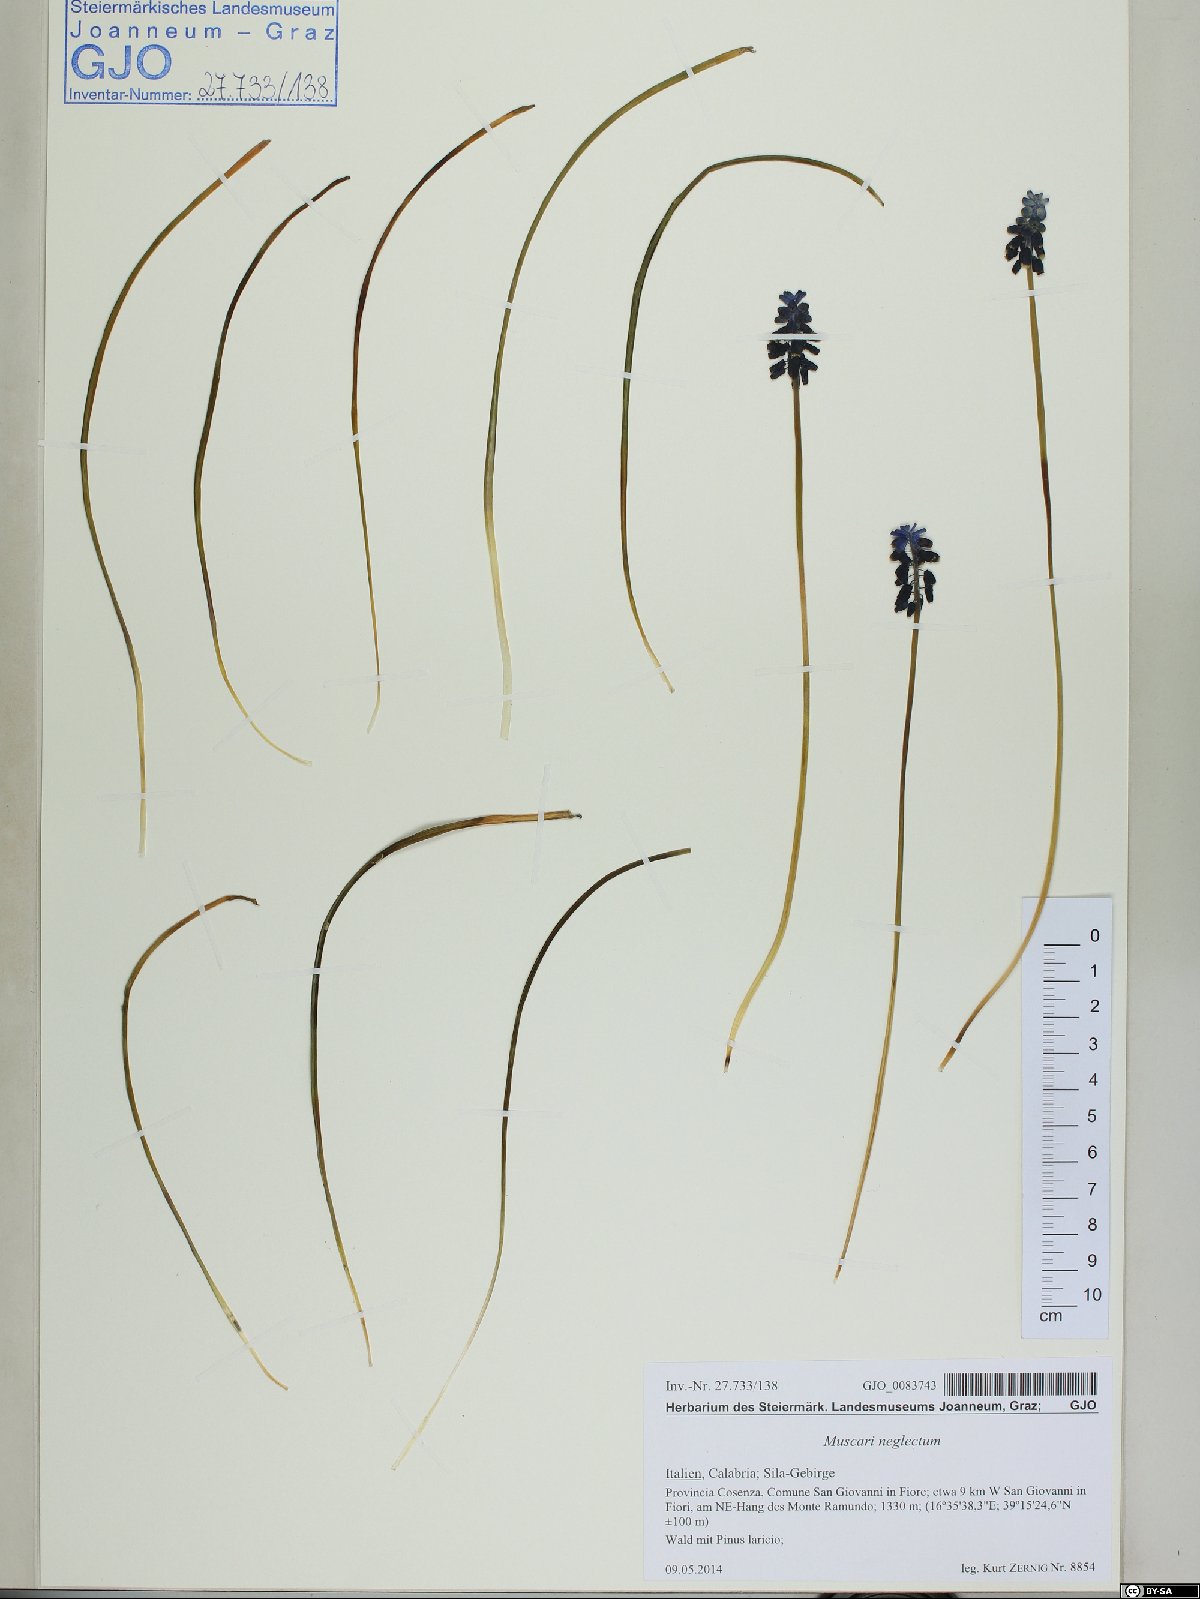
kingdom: Plantae
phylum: Tracheophyta
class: Liliopsida
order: Asparagales
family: Asparagaceae
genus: Muscari
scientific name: Muscari neglectum
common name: Grape-hyacinth
